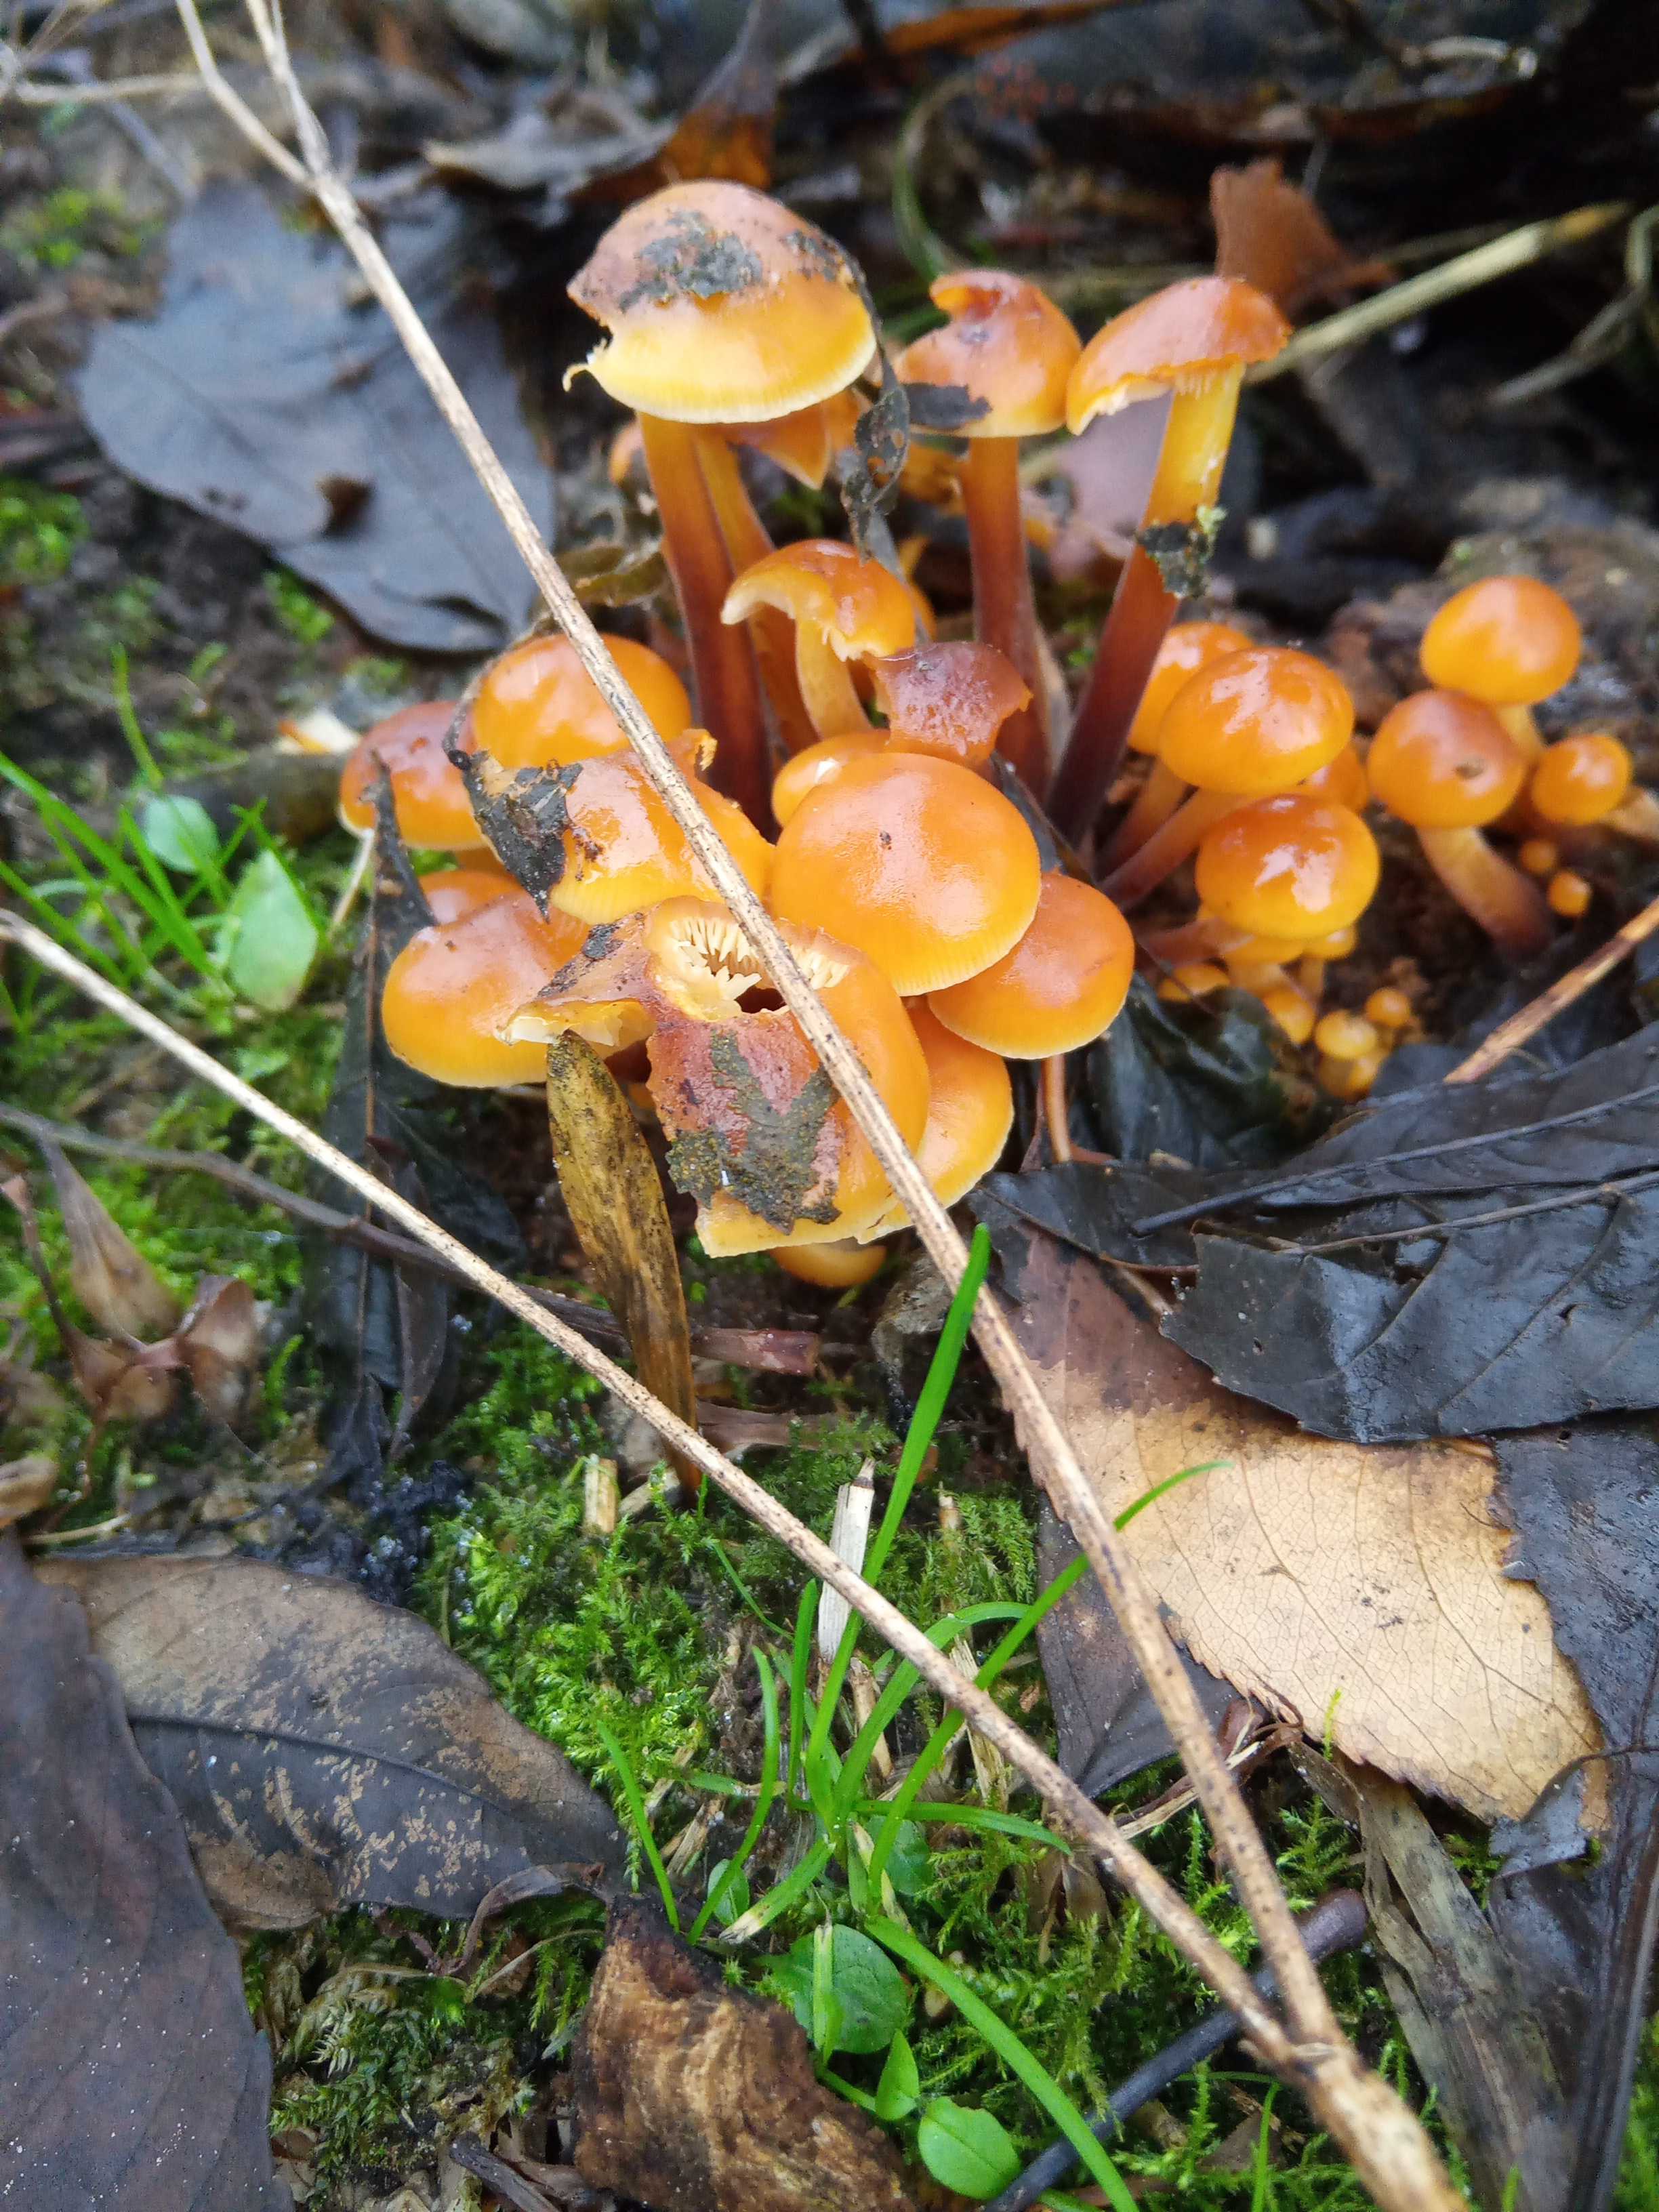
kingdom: Fungi
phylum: Basidiomycota
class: Agaricomycetes
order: Agaricales
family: Physalacriaceae
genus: Flammulina
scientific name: Flammulina velutipes
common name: gul fløjlsfod
